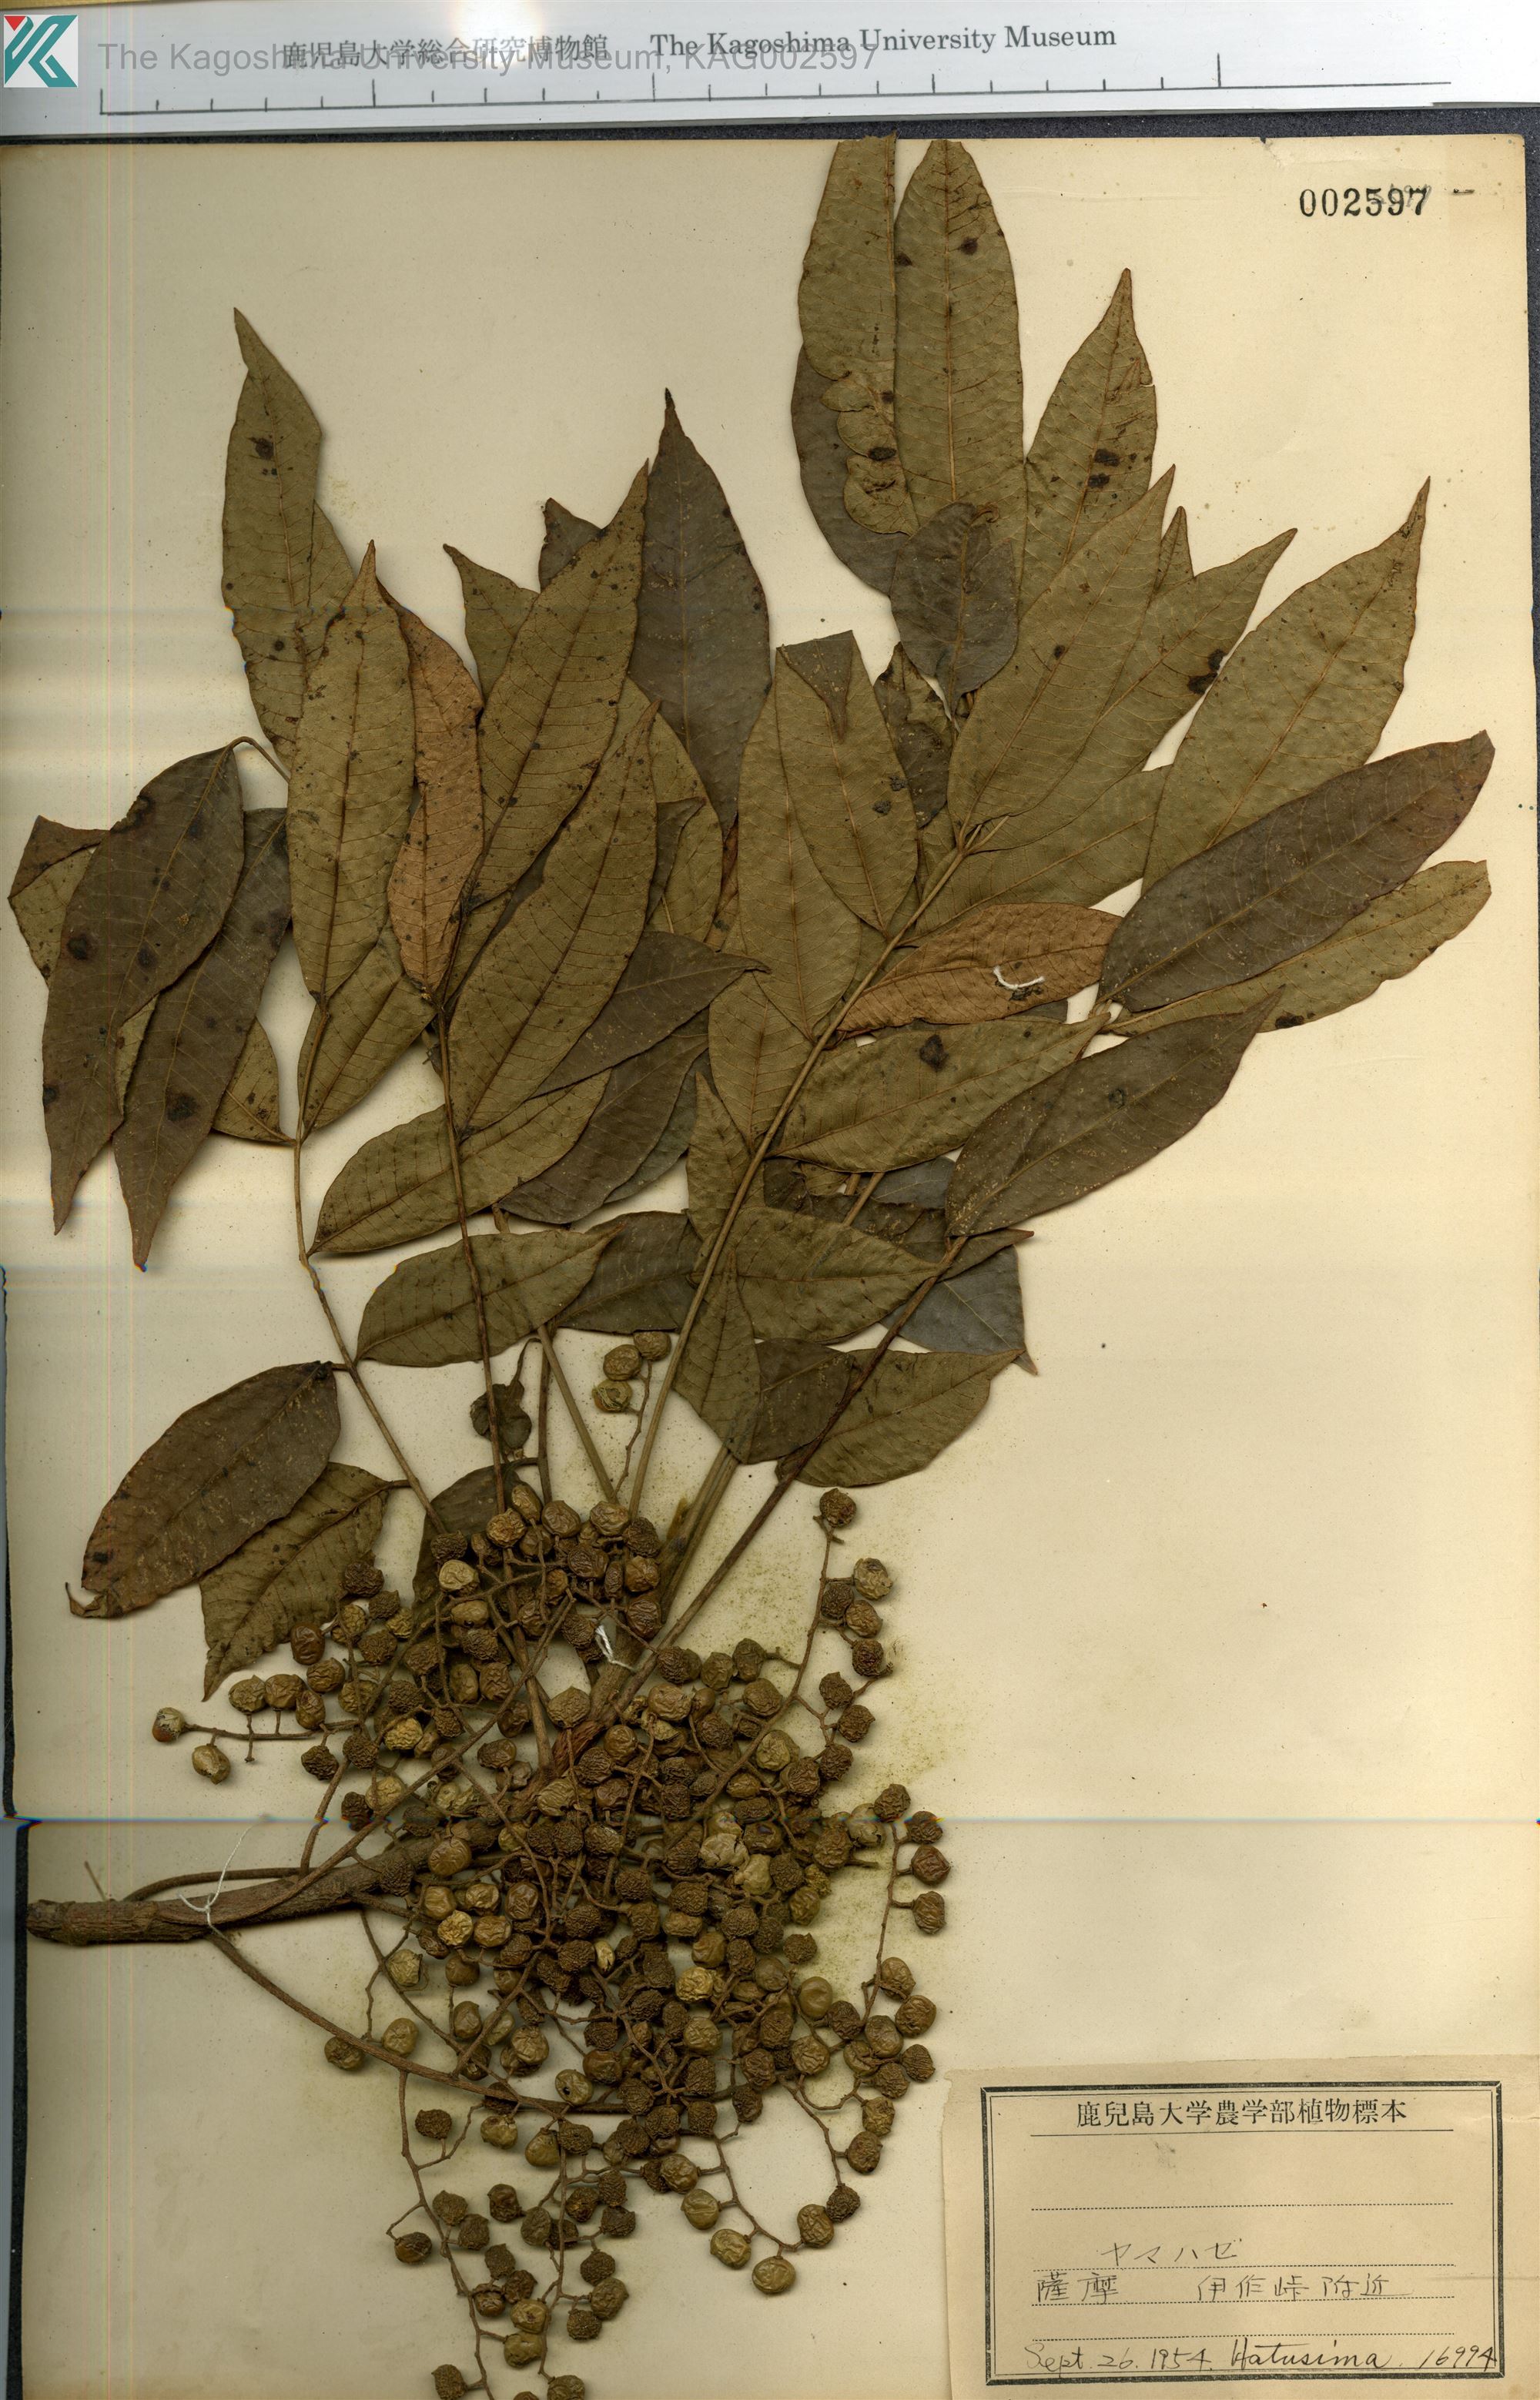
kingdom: Plantae
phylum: Tracheophyta
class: Magnoliopsida
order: Sapindales
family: Anacardiaceae
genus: Toxicodendron
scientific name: Toxicodendron sylvestre
